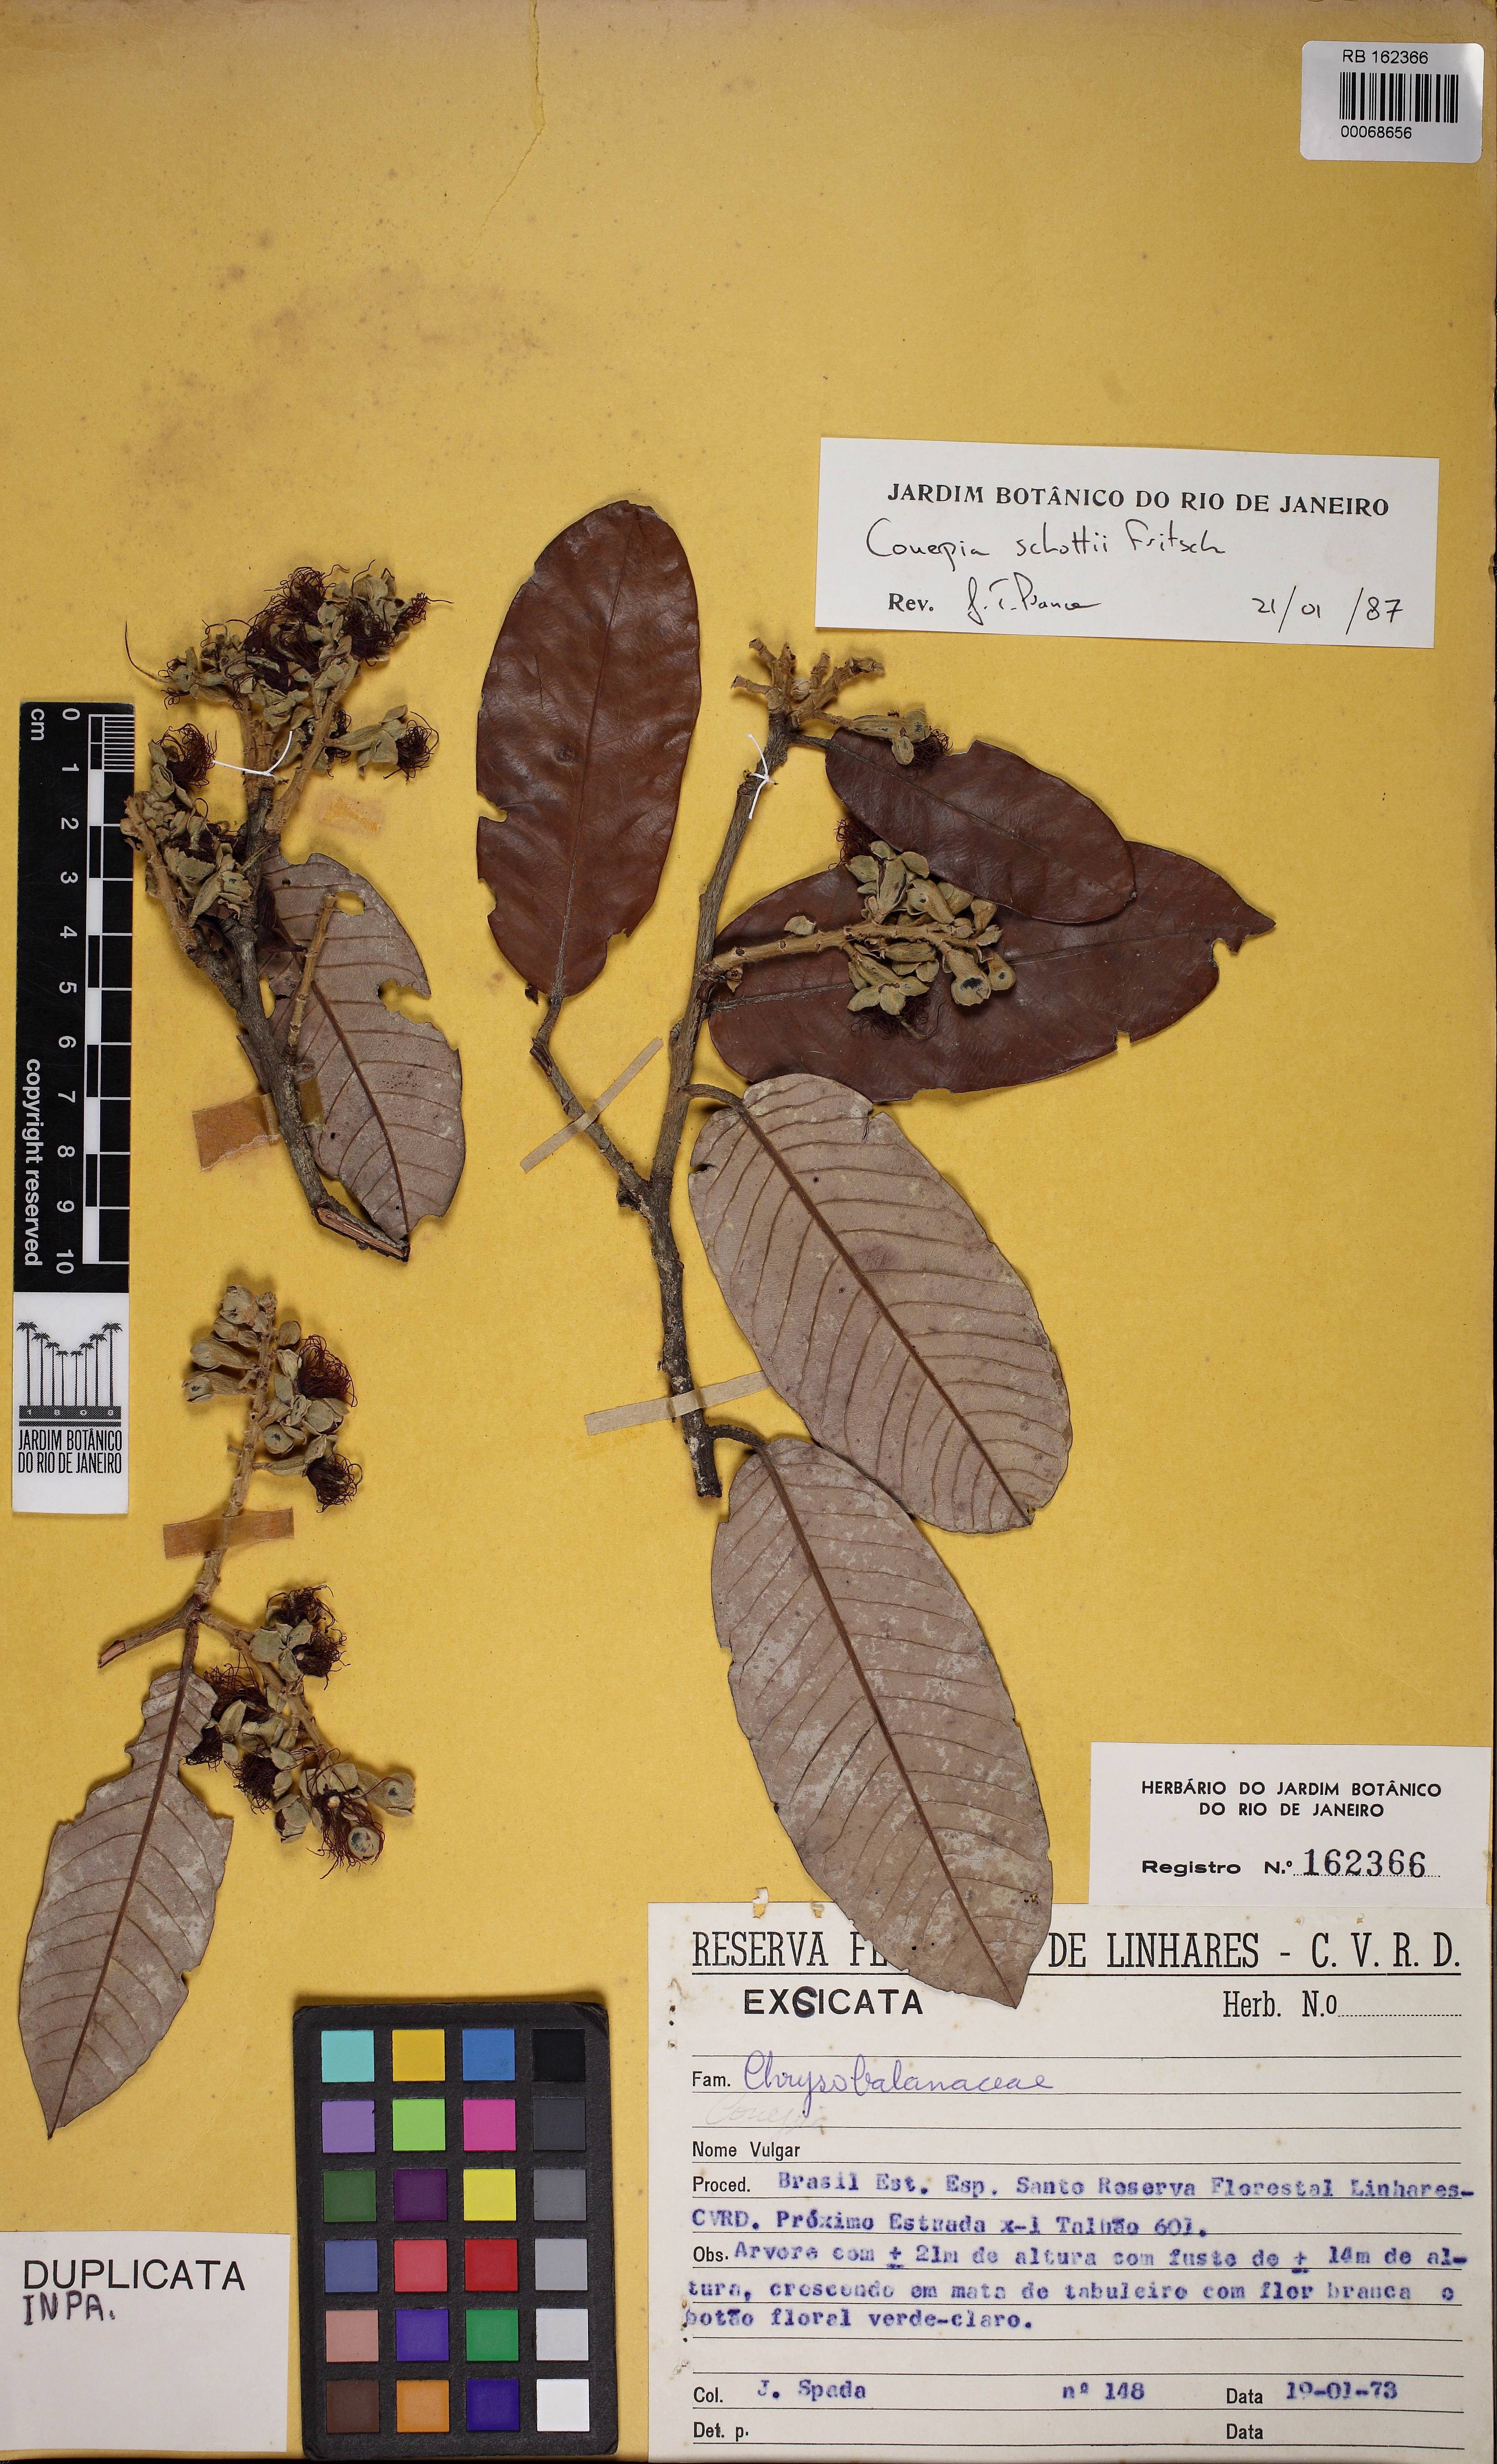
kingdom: Plantae
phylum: Tracheophyta
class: Magnoliopsida
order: Malpighiales
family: Chrysobalanaceae
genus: Couepia
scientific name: Couepia schottii
